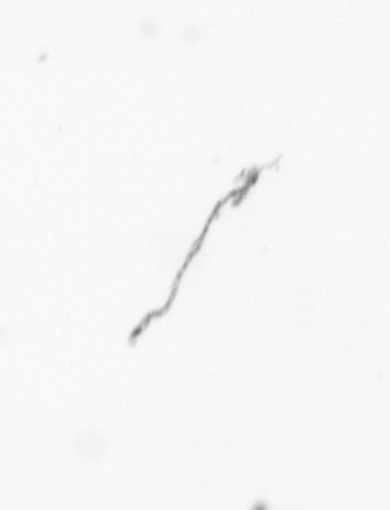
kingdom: Chromista
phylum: Ochrophyta
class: Bacillariophyceae
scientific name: Bacillariophyceae
